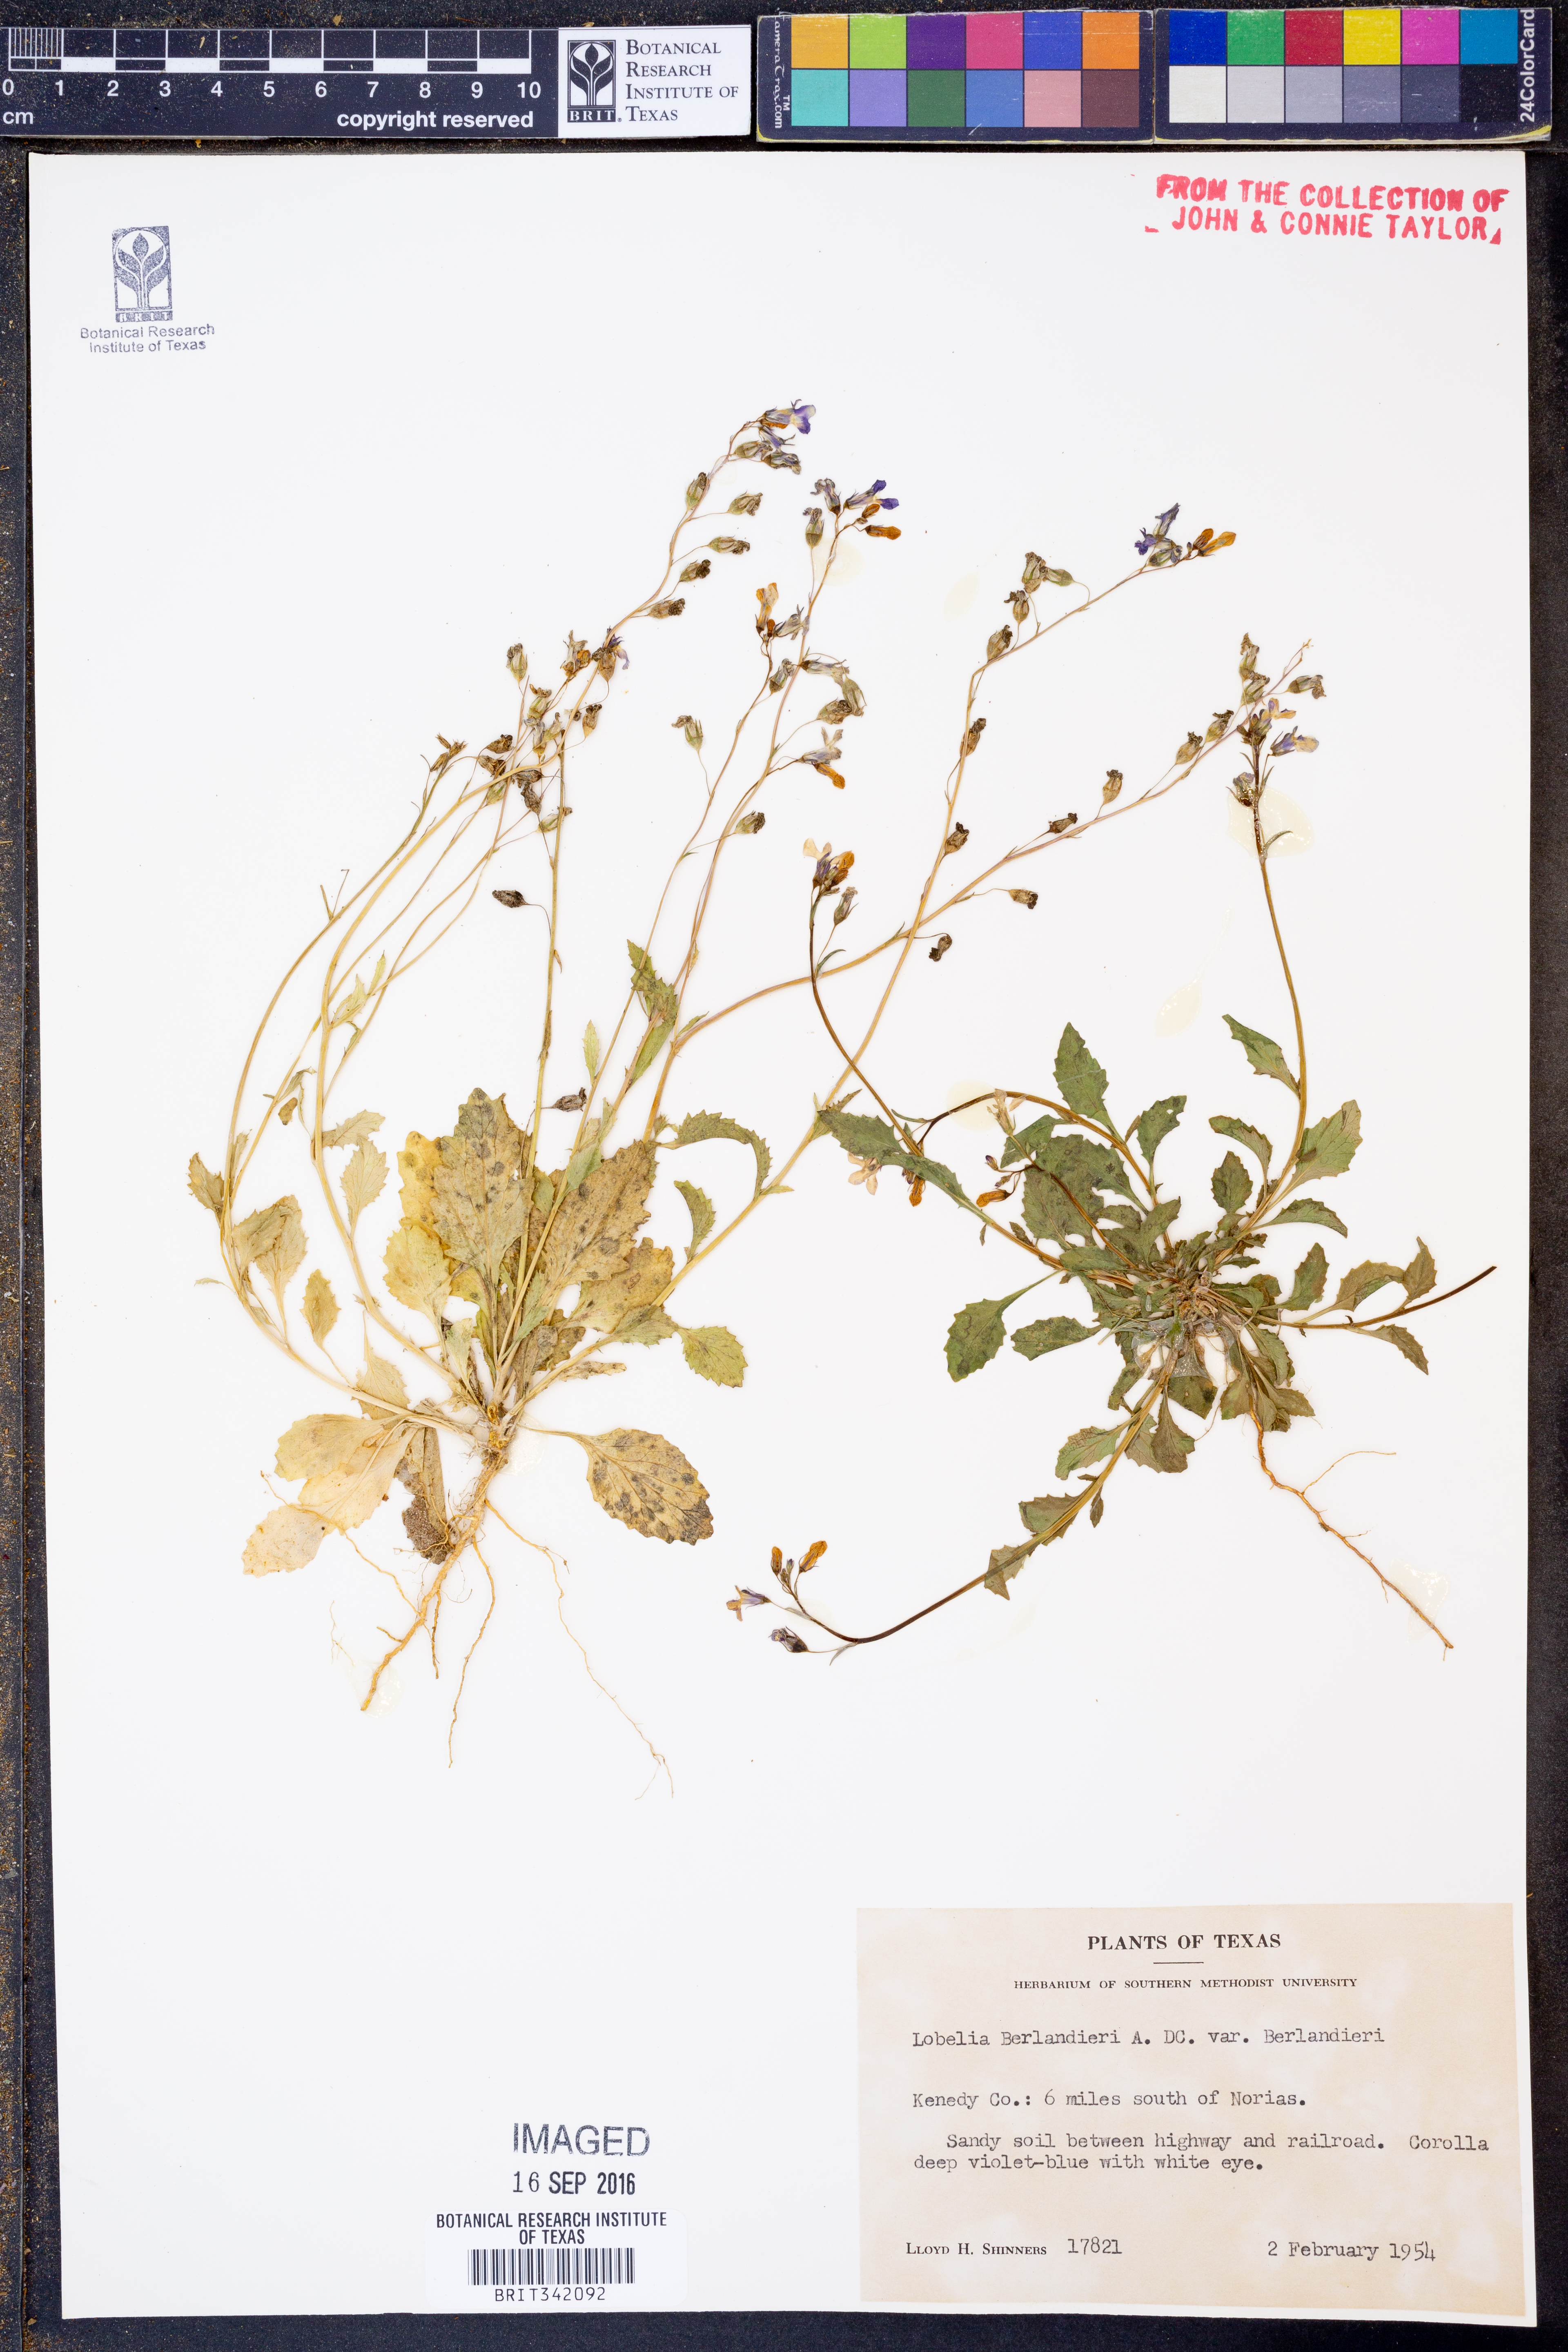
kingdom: Plantae
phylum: Tracheophyta
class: Magnoliopsida
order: Asterales
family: Campanulaceae
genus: Lobelia
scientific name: Lobelia berlandieri
